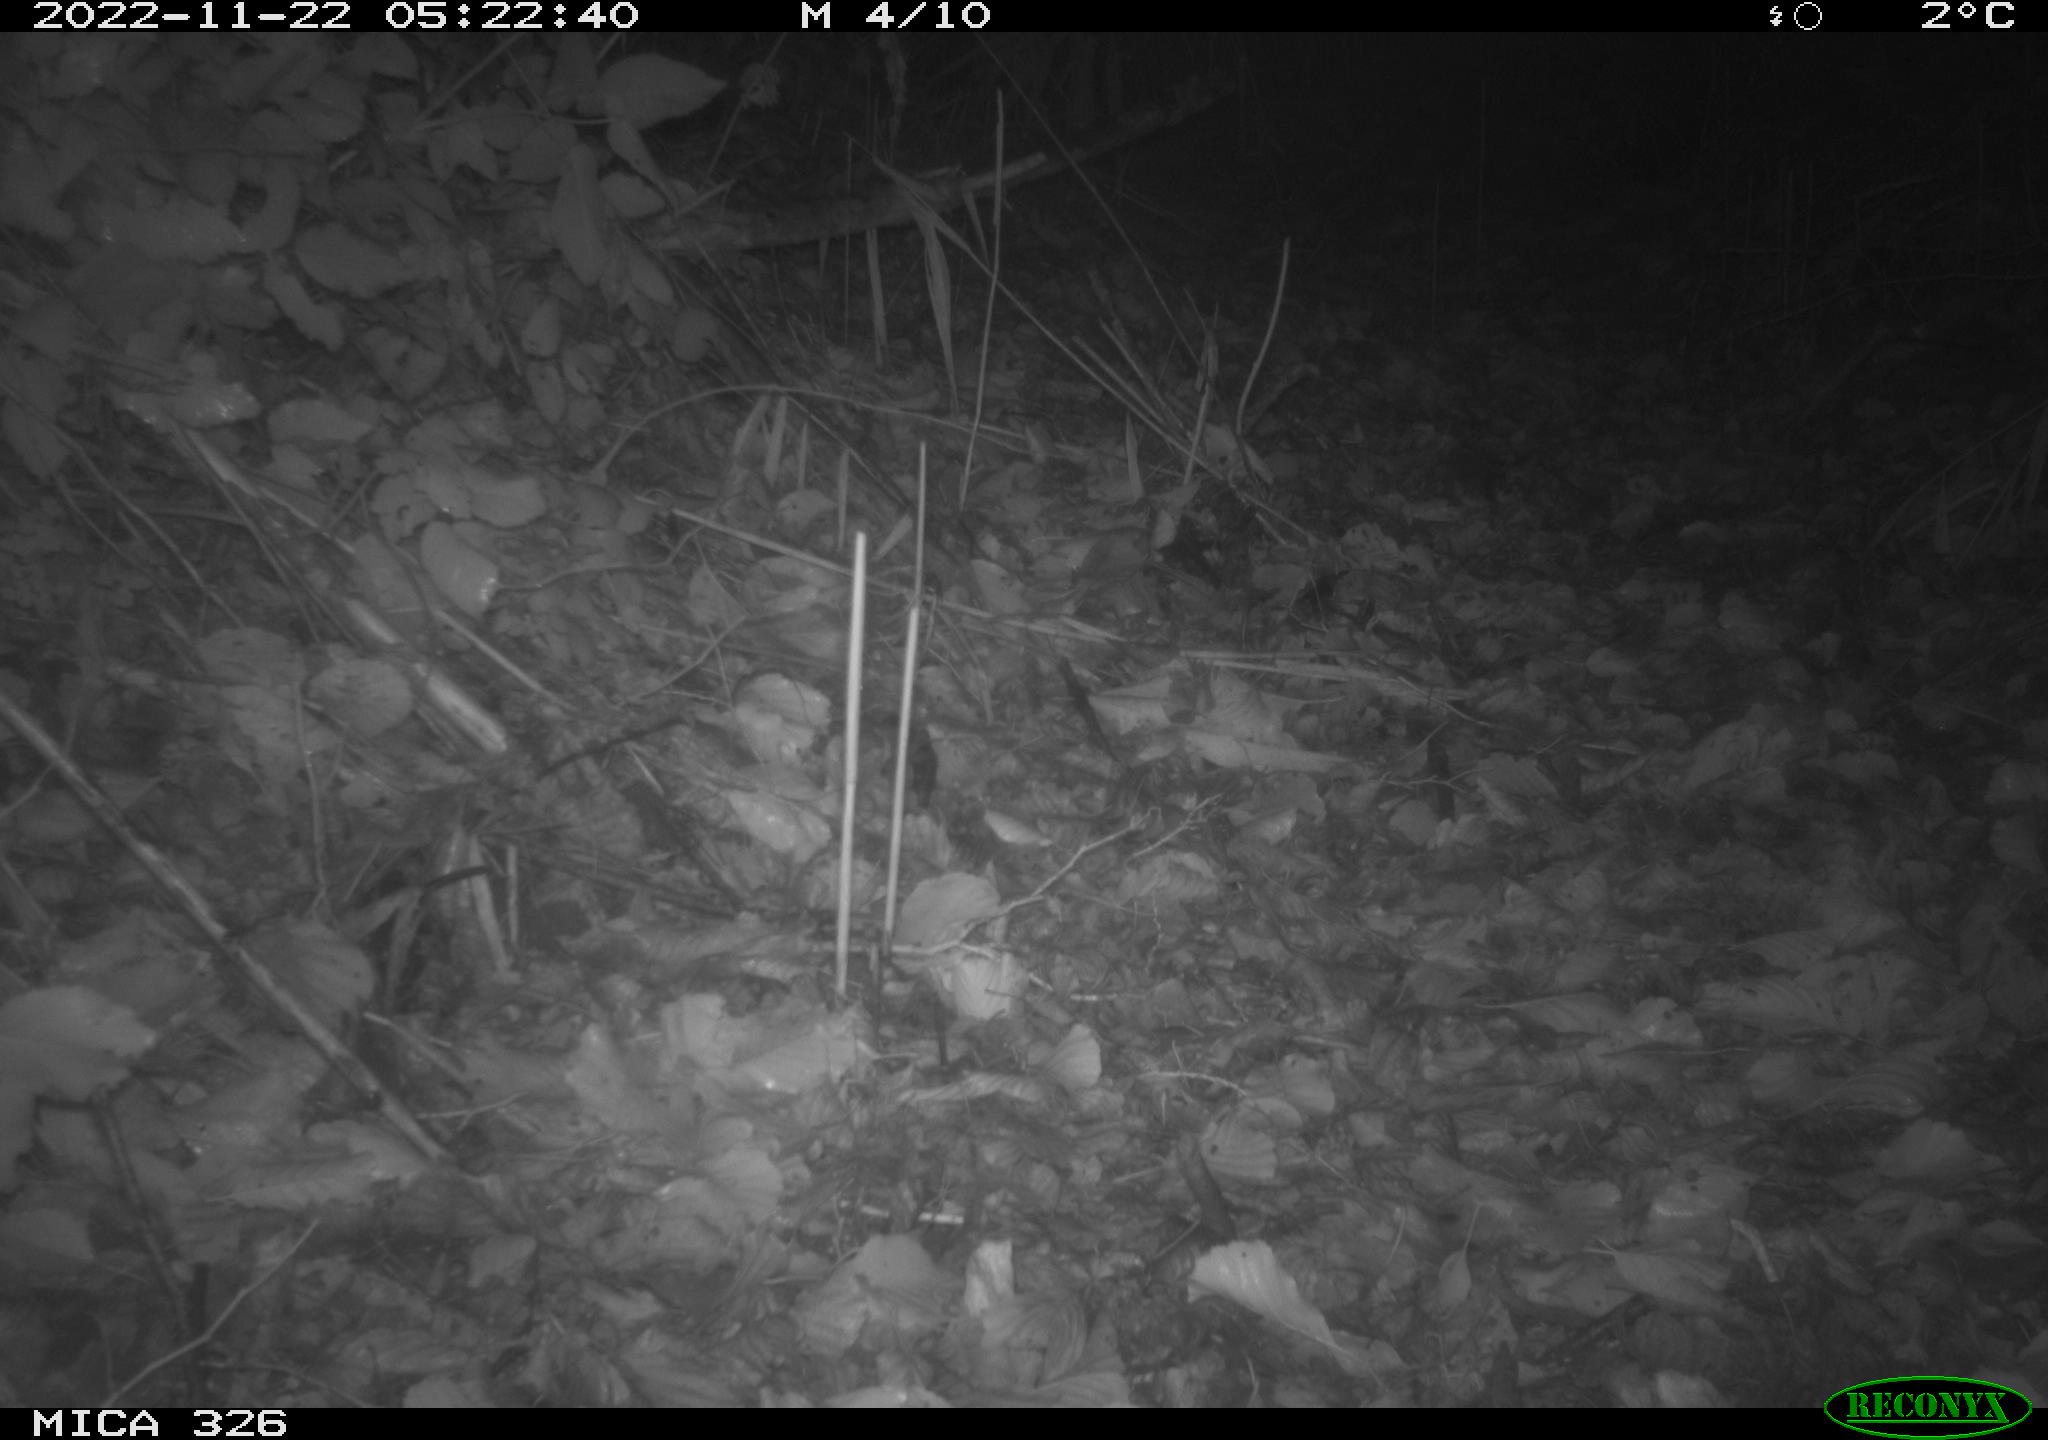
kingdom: Animalia
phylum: Chordata
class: Mammalia
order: Rodentia
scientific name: Rodentia
